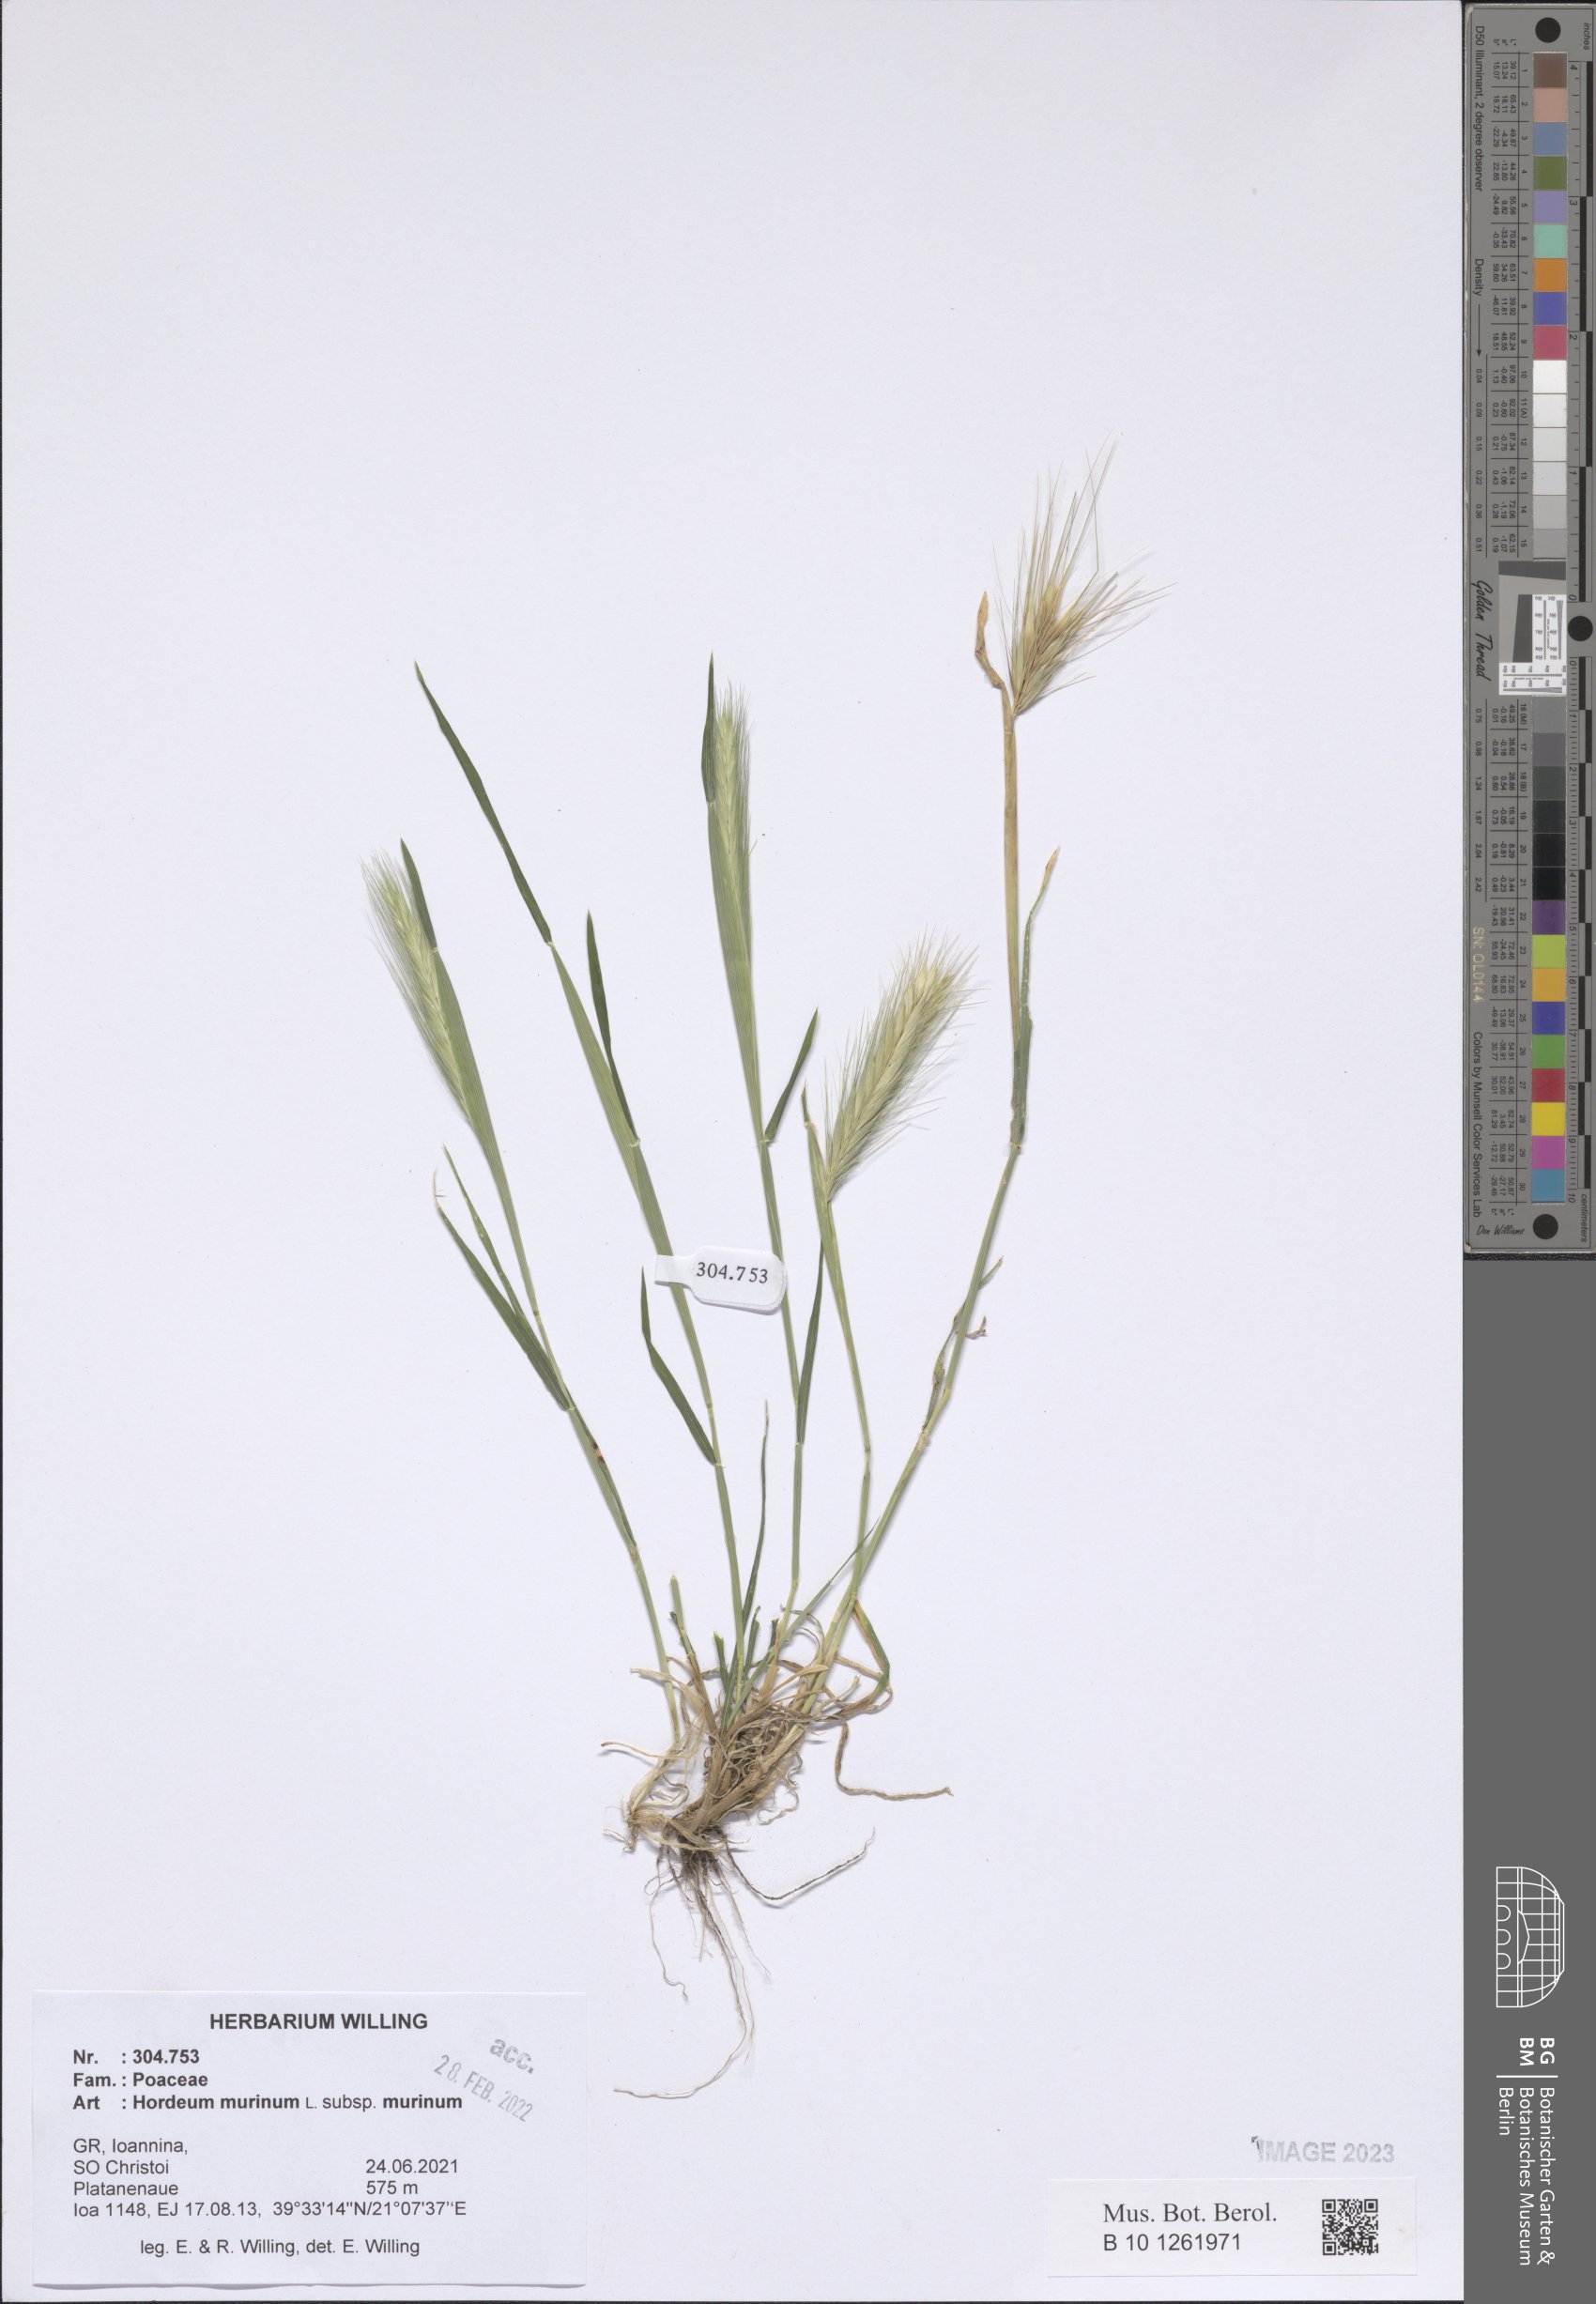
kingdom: Plantae
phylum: Tracheophyta
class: Liliopsida
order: Poales
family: Poaceae
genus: Hordeum
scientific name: Hordeum murinum
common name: Wall barley
